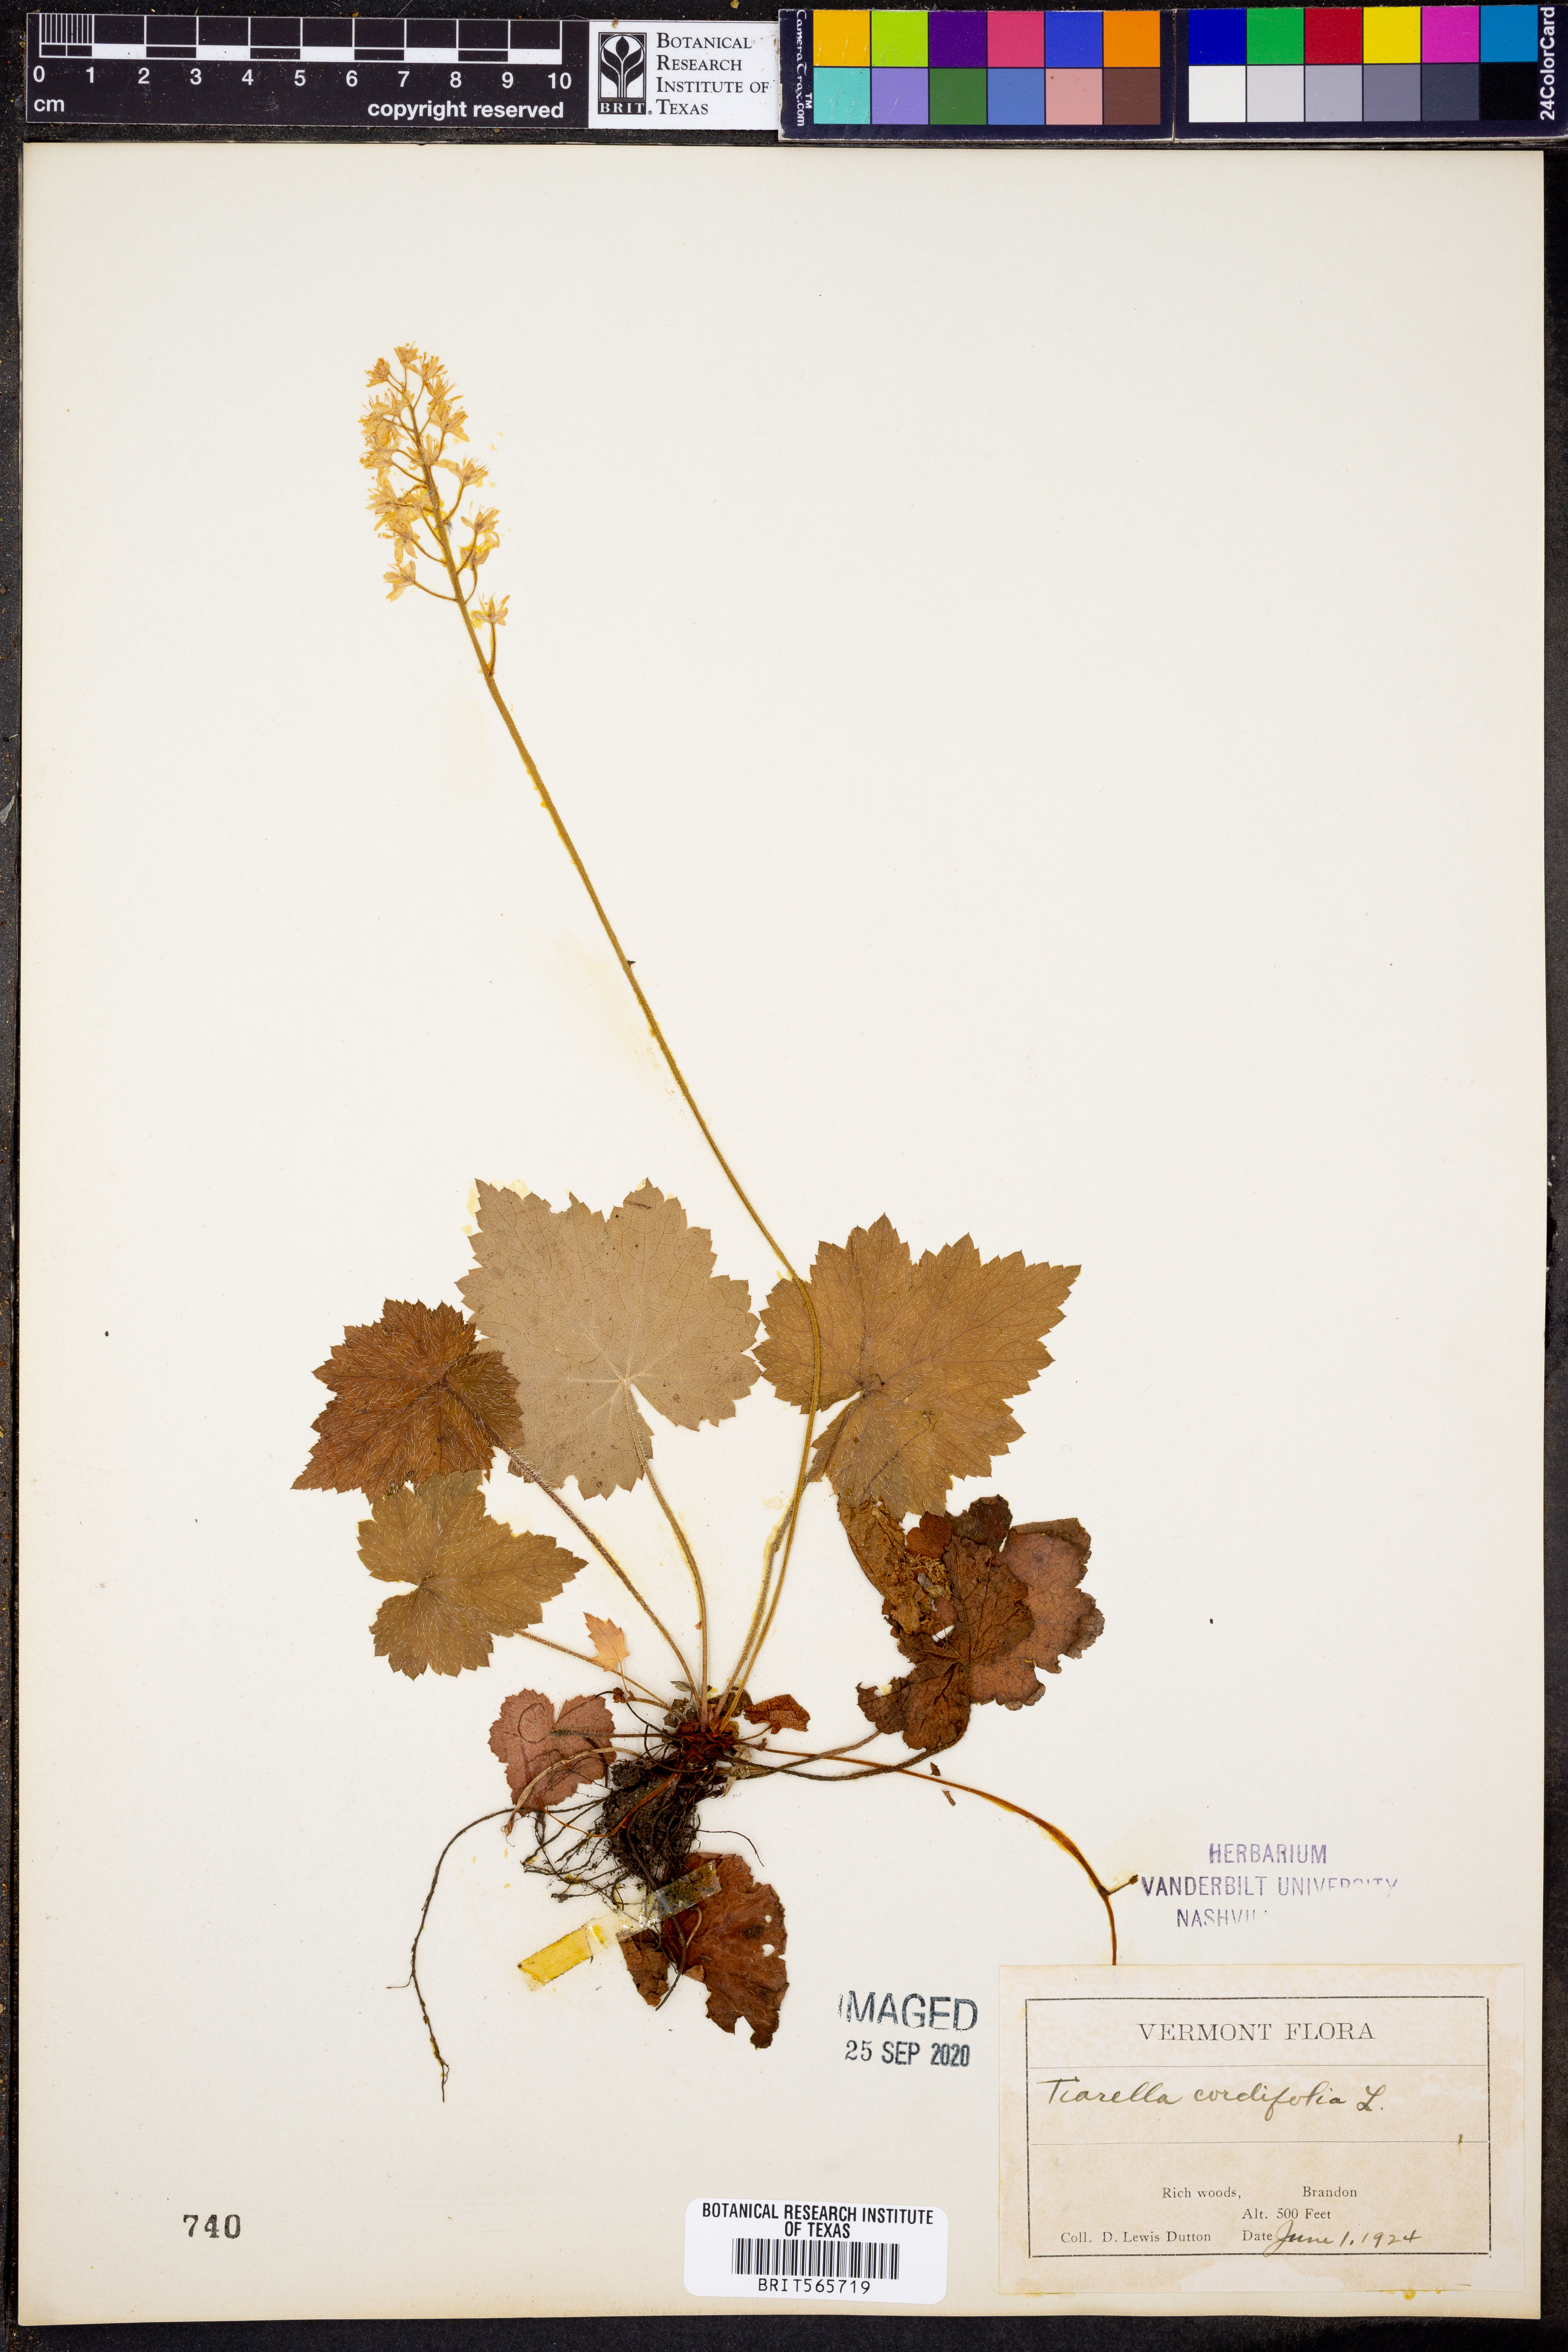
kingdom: Plantae
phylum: Tracheophyta
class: Magnoliopsida
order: Saxifragales
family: Saxifragaceae
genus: Tiarella
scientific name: Tiarella cordifolia
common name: Foamflower
